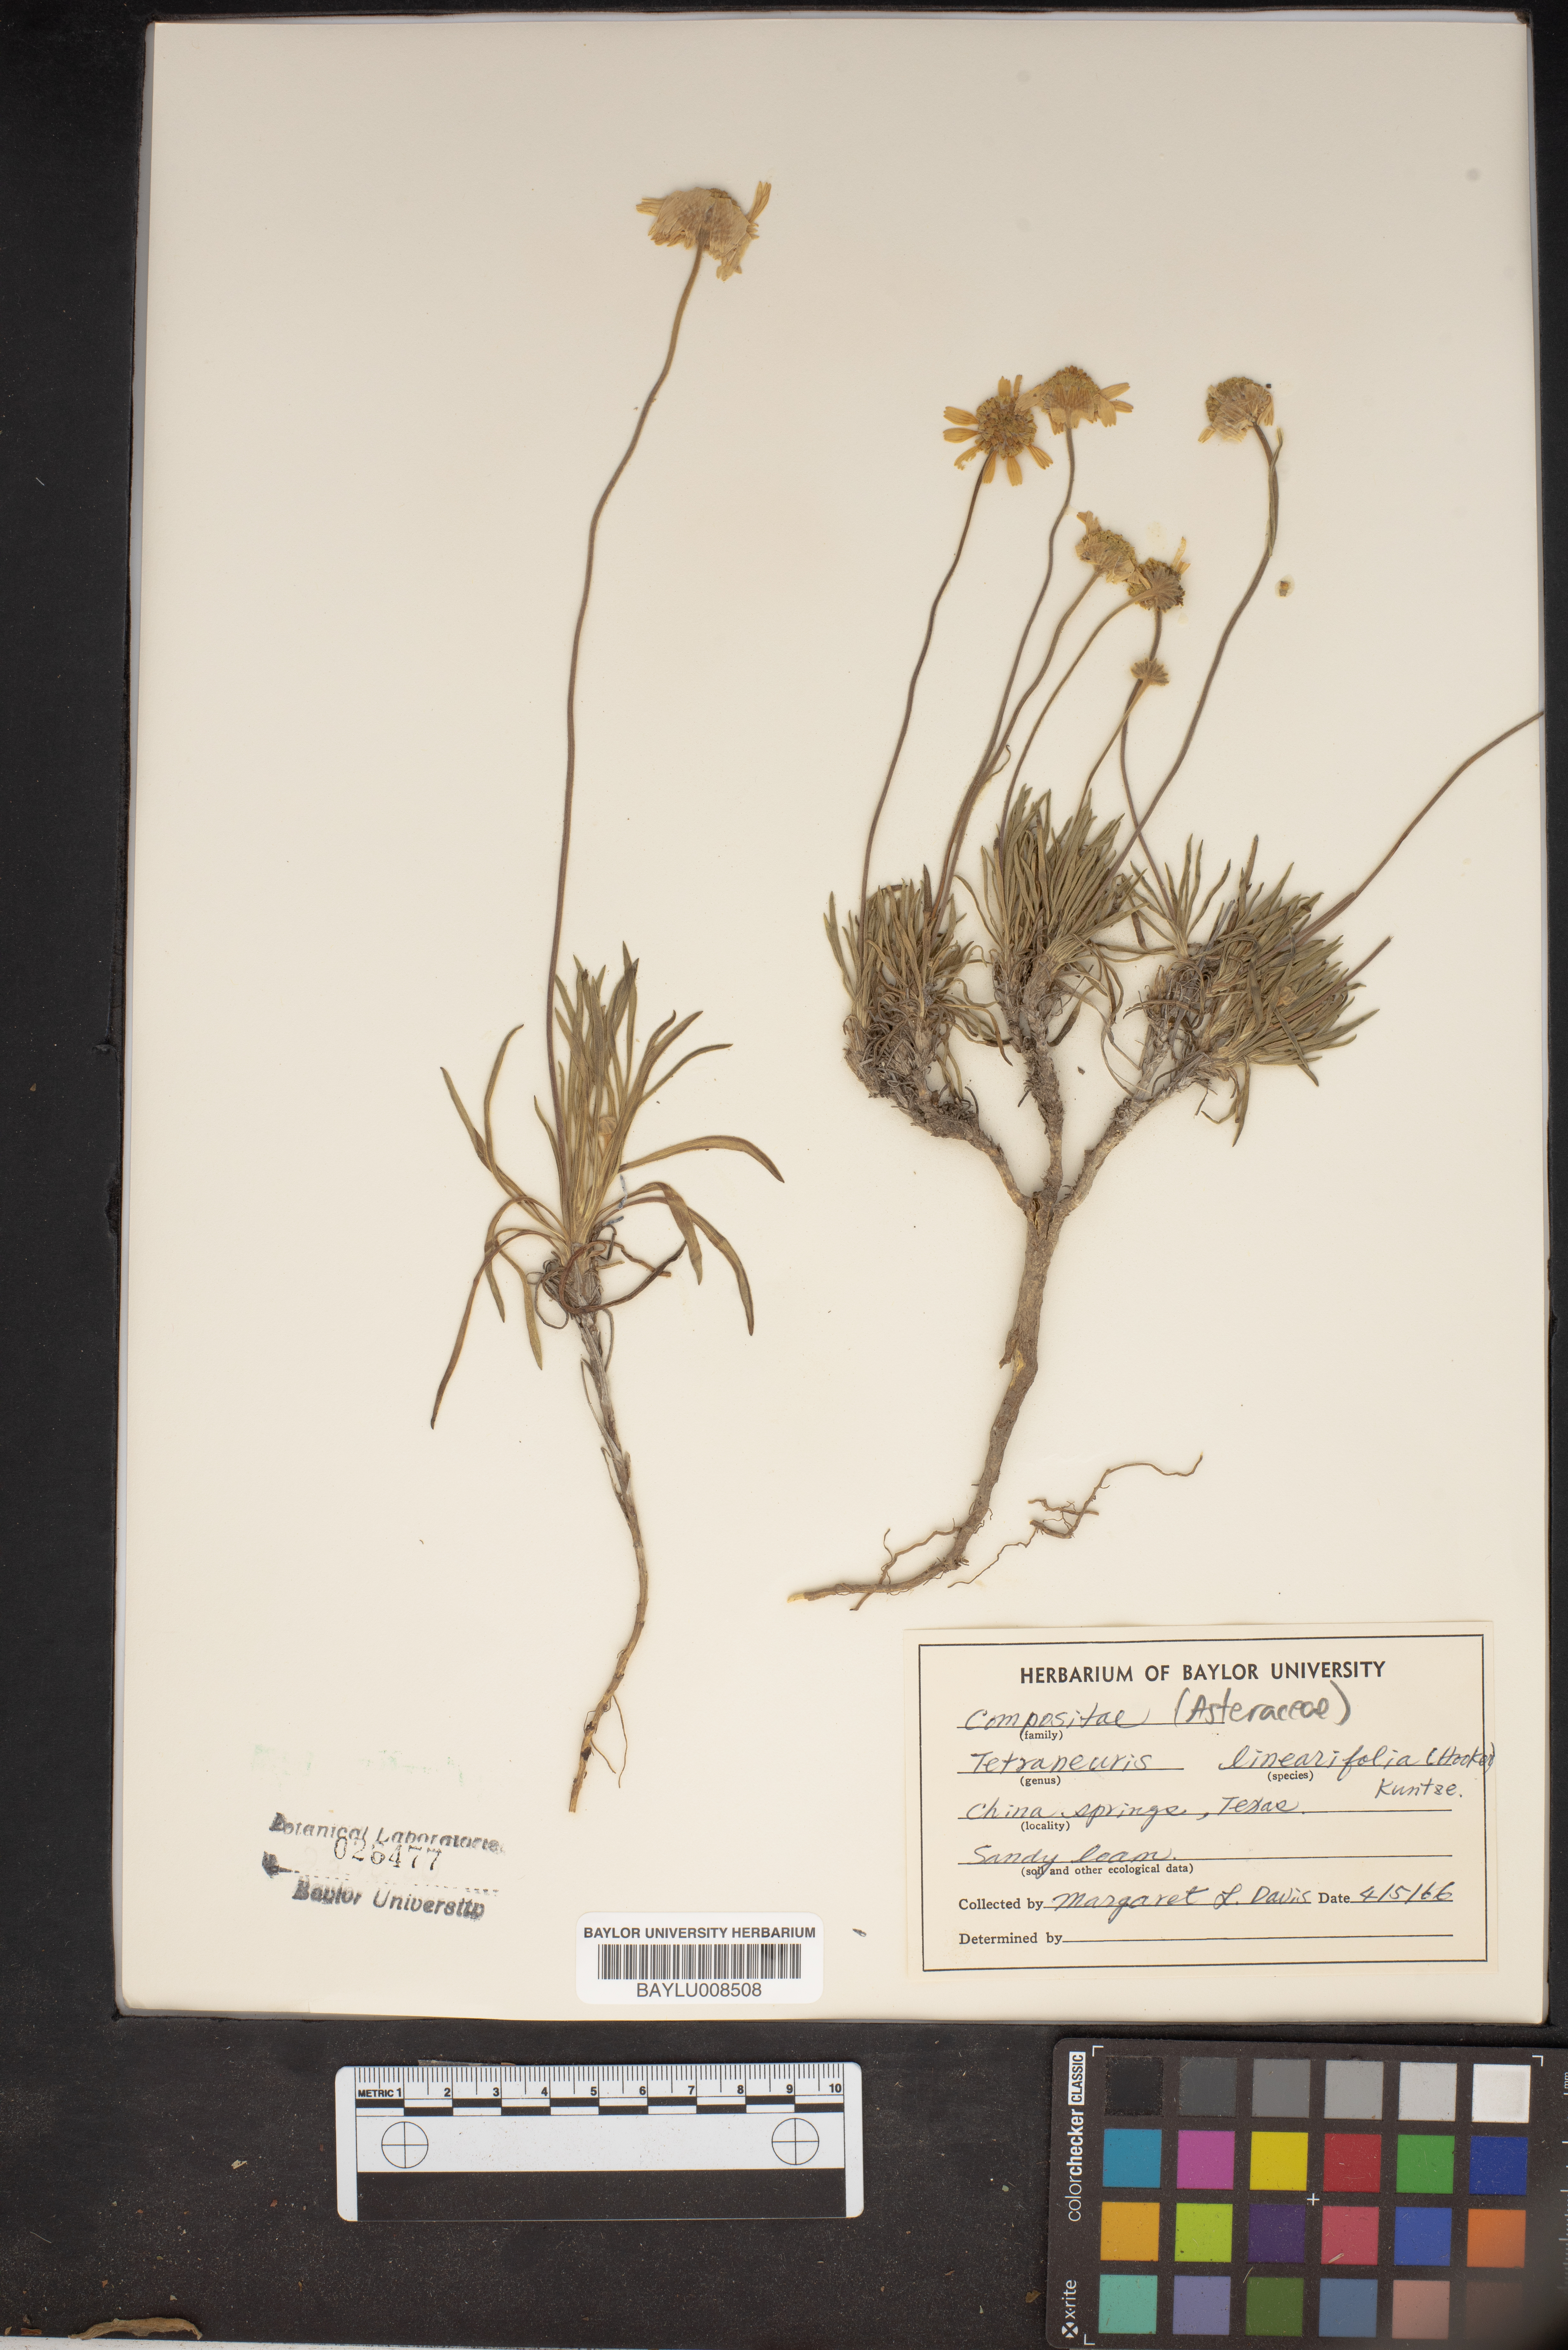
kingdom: Plantae
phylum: Tracheophyta
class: Magnoliopsida
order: Asterales
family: Asteraceae
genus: Tetraneuris
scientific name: Tetraneuris linearifolia
